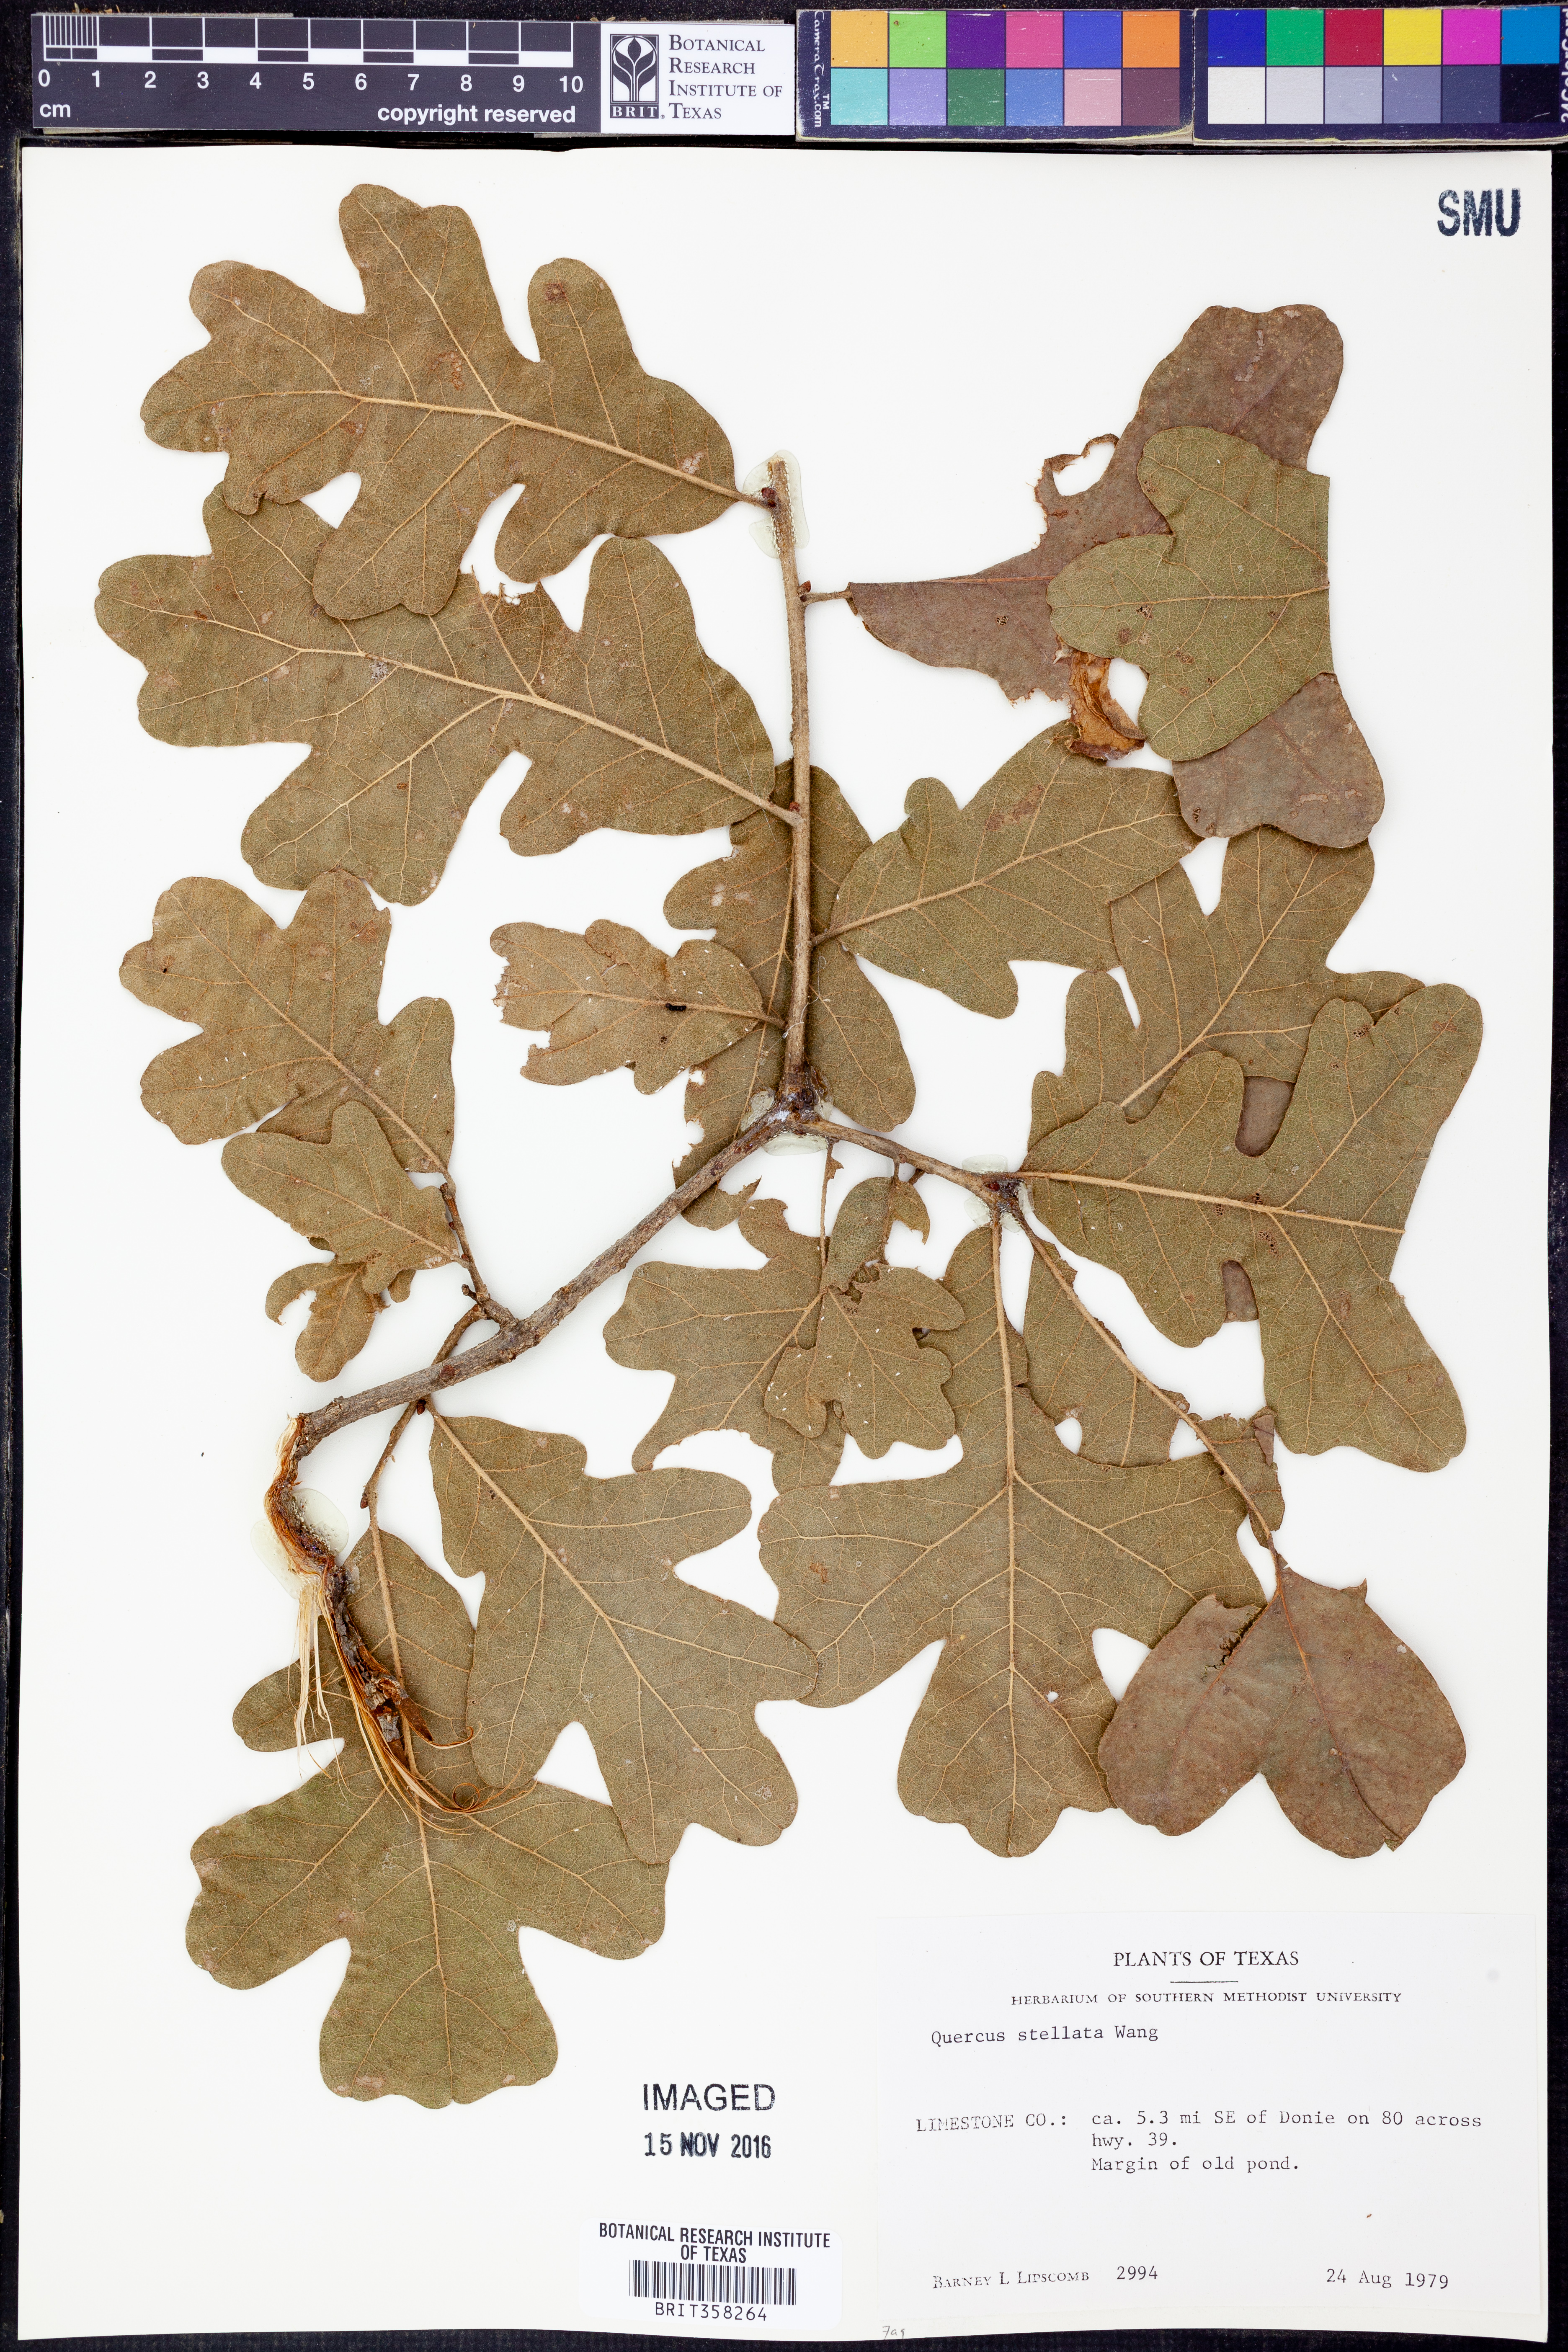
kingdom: Plantae
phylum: Tracheophyta
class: Magnoliopsida
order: Fagales
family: Fagaceae
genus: Quercus
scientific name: Quercus stellata
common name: Post oak
